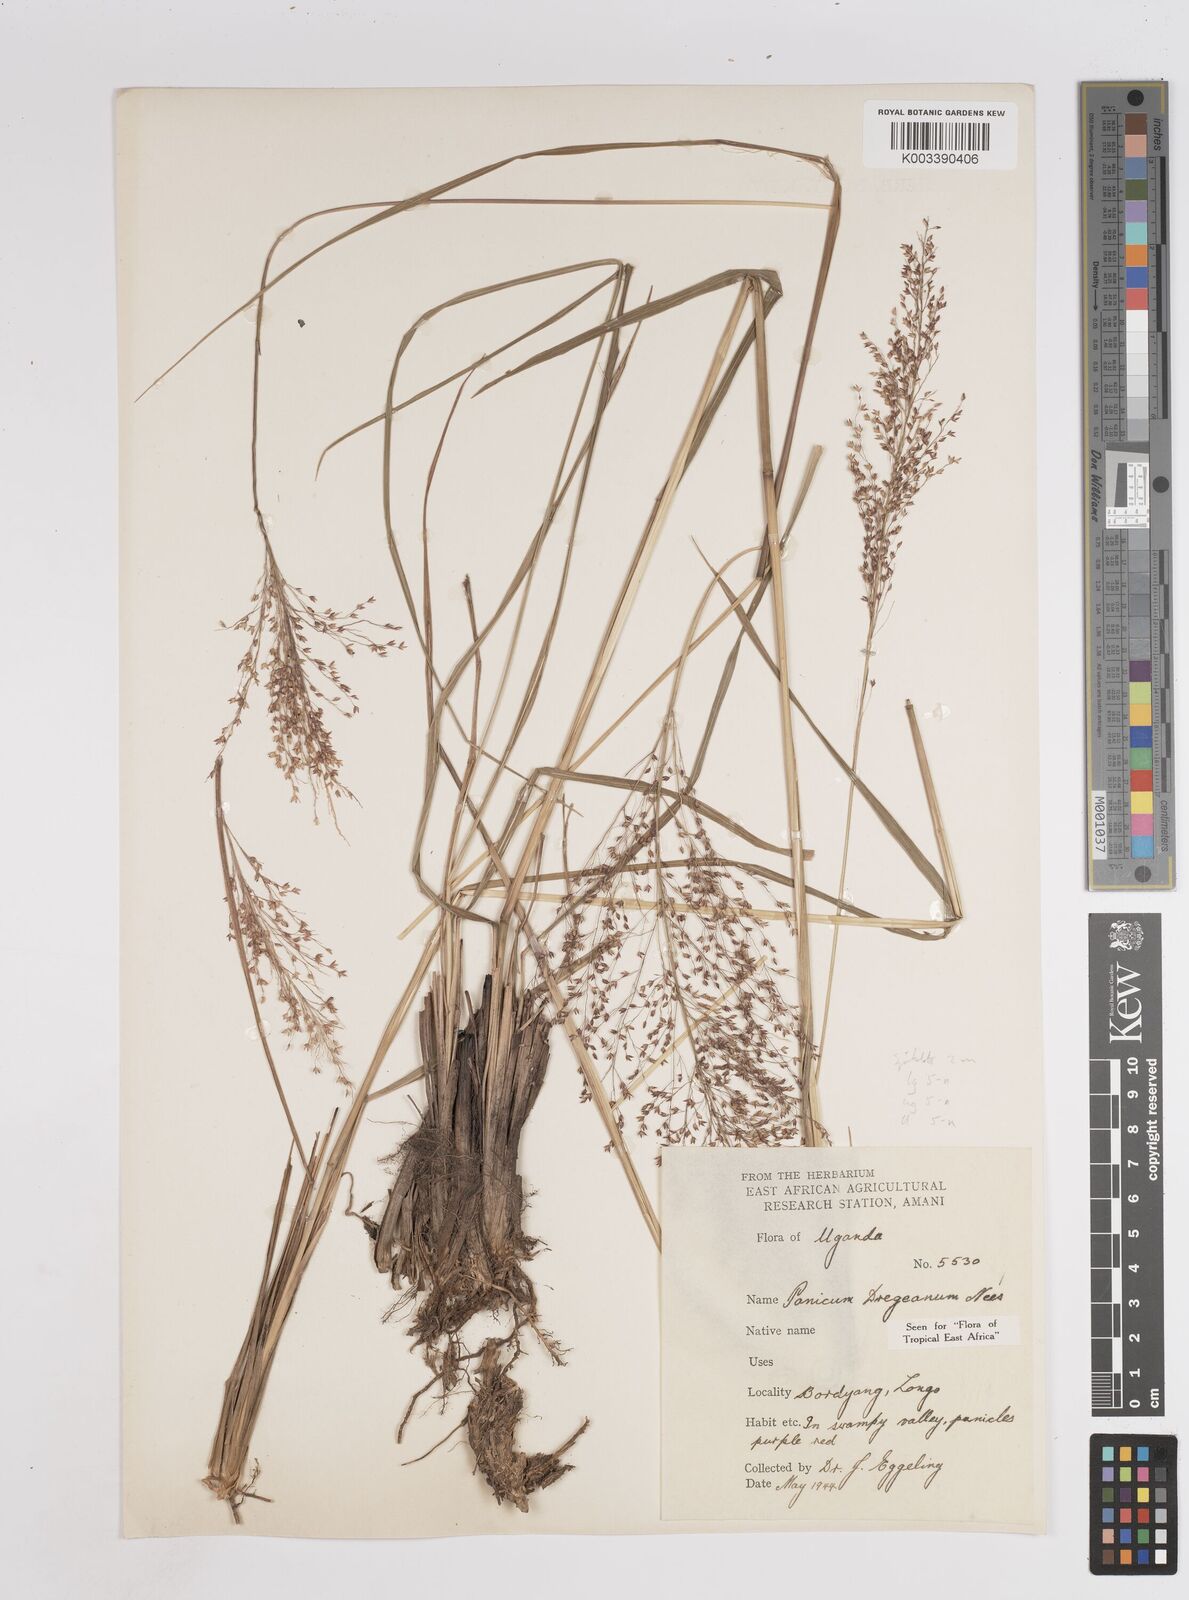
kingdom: Plantae
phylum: Tracheophyta
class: Liliopsida
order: Poales
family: Poaceae
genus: Panicum
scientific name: Panicum dregeanum
